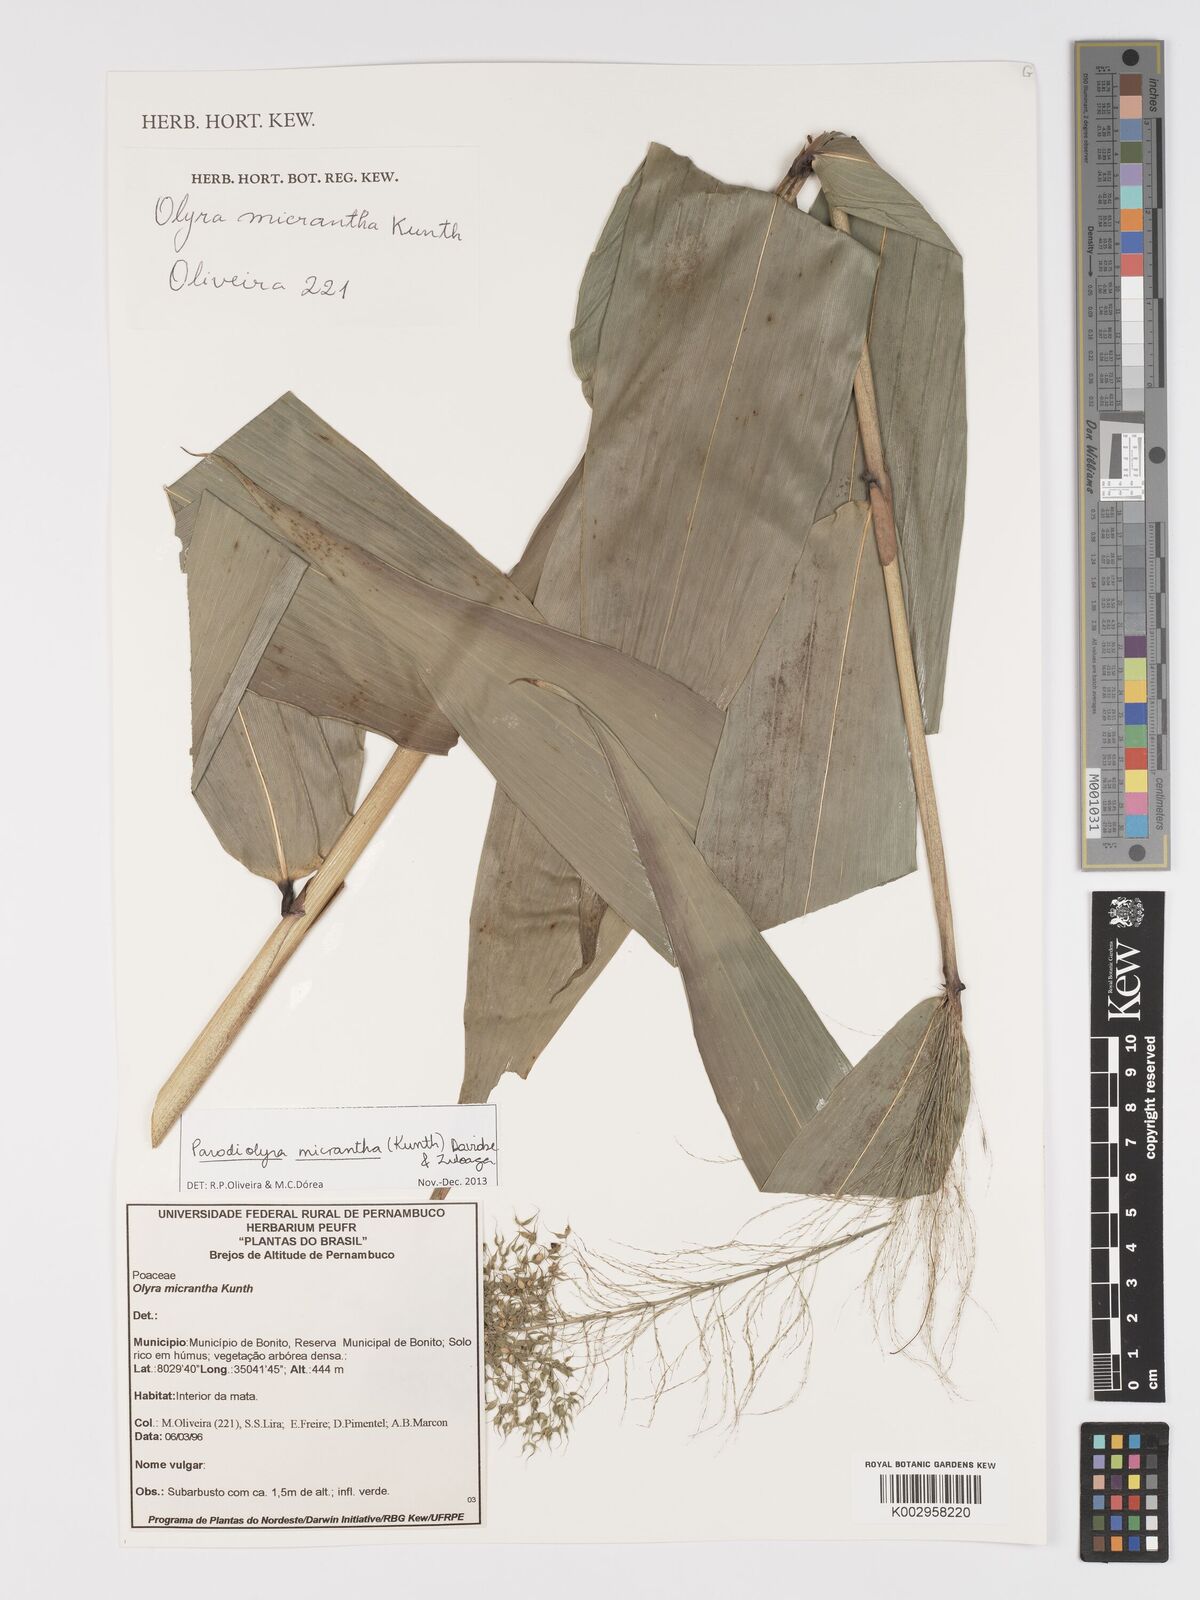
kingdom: Plantae
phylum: Tracheophyta
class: Liliopsida
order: Poales
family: Poaceae
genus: Taquara
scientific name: Taquara micrantha
